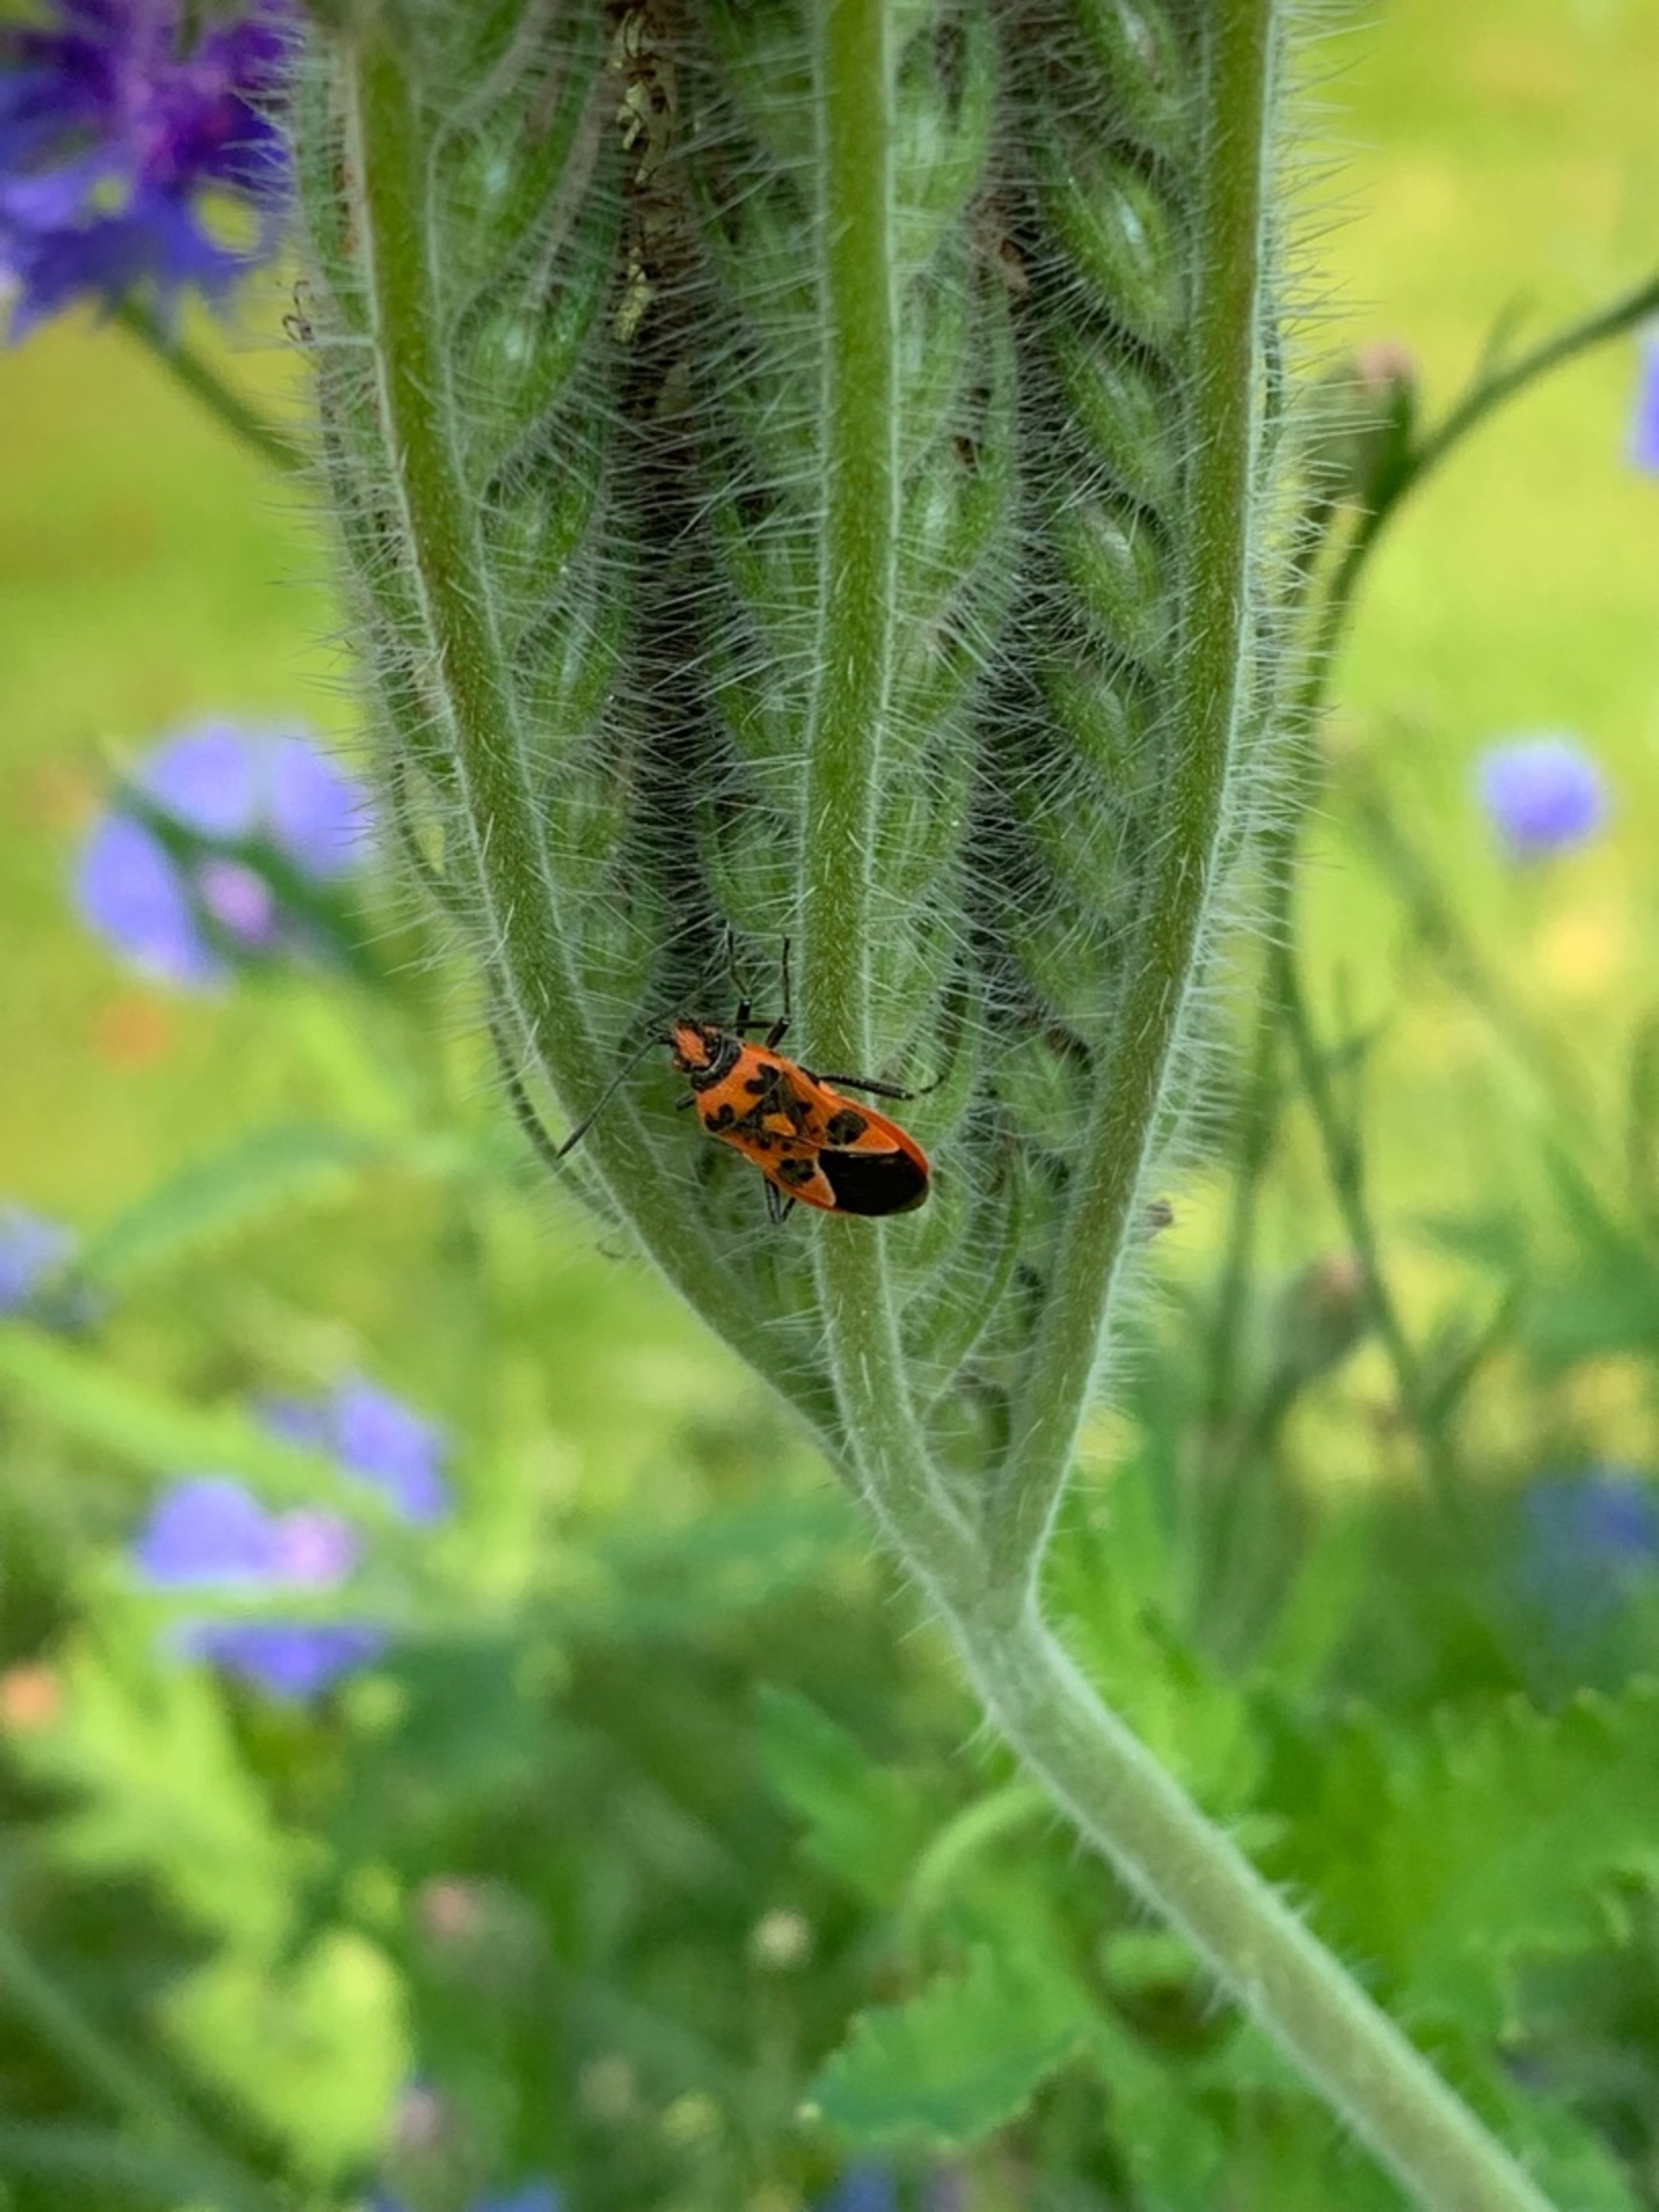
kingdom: Animalia
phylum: Arthropoda
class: Insecta
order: Hemiptera
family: Rhopalidae
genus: Corizus
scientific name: Corizus hyoscyami
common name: Rød kanttæge
